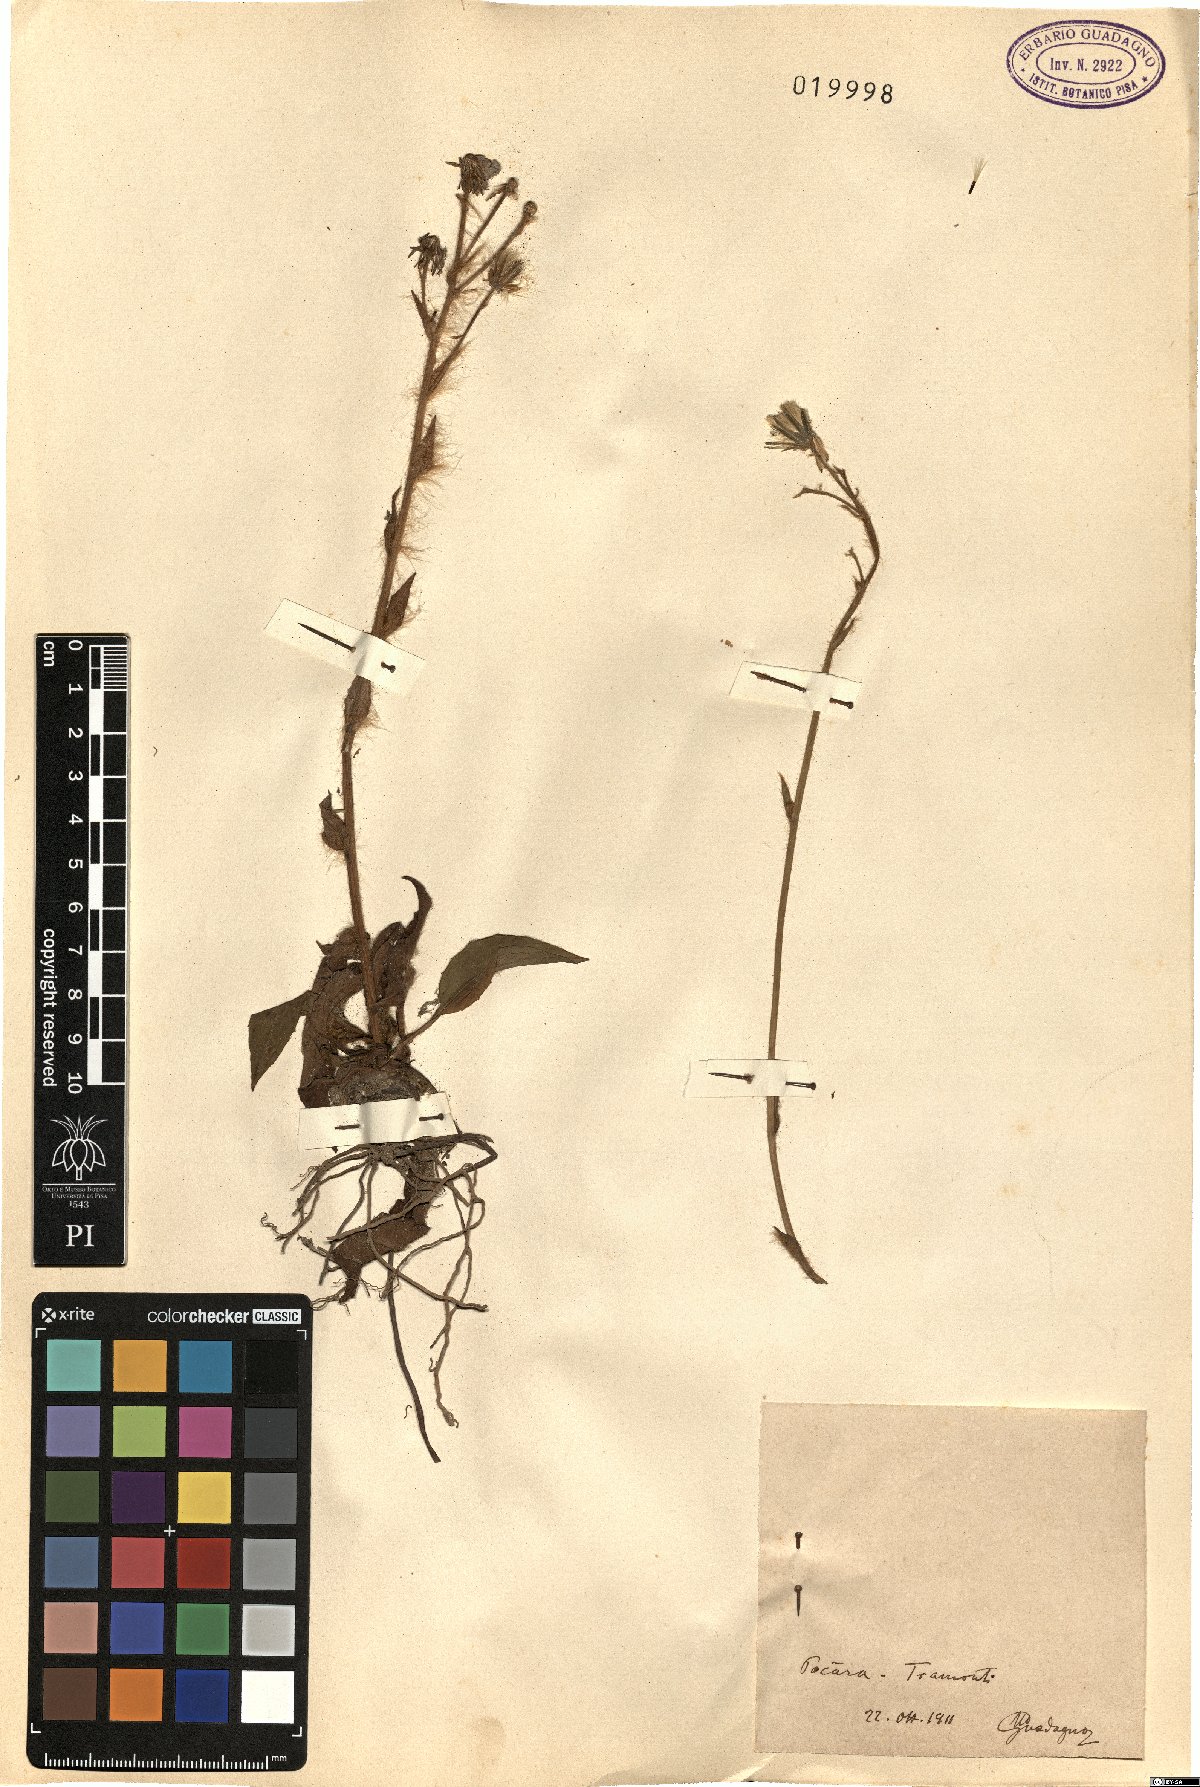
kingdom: Plantae
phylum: Tracheophyta
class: Magnoliopsida
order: Asterales
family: Asteraceae
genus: Hieracium
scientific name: Hieracium
